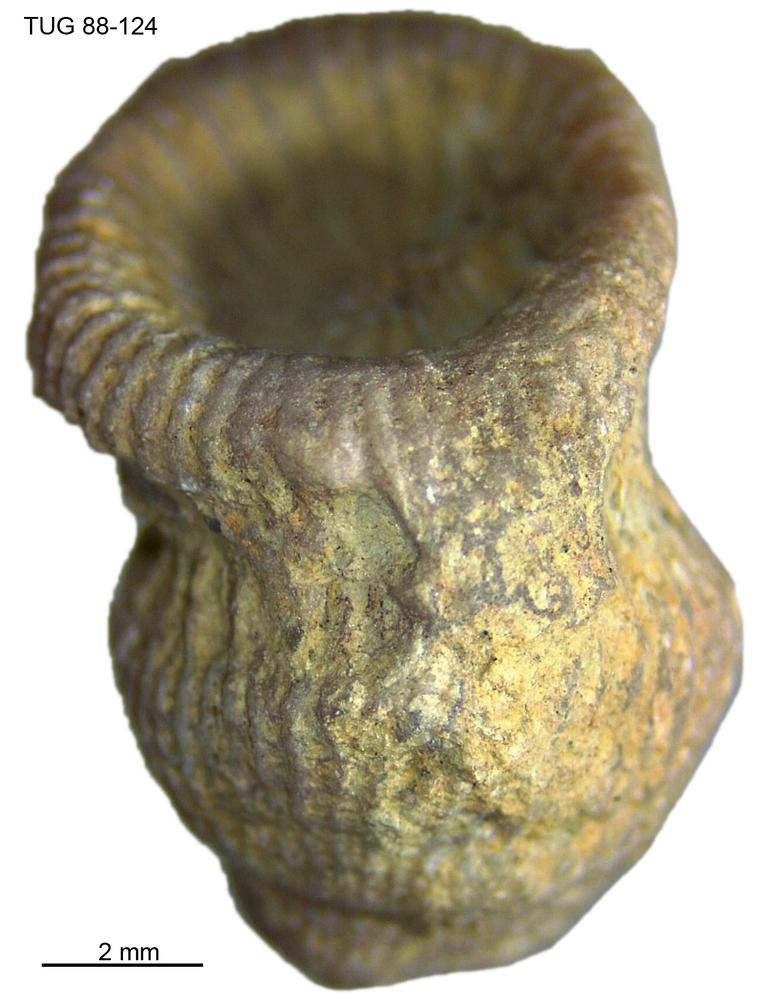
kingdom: Animalia
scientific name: Animalia
